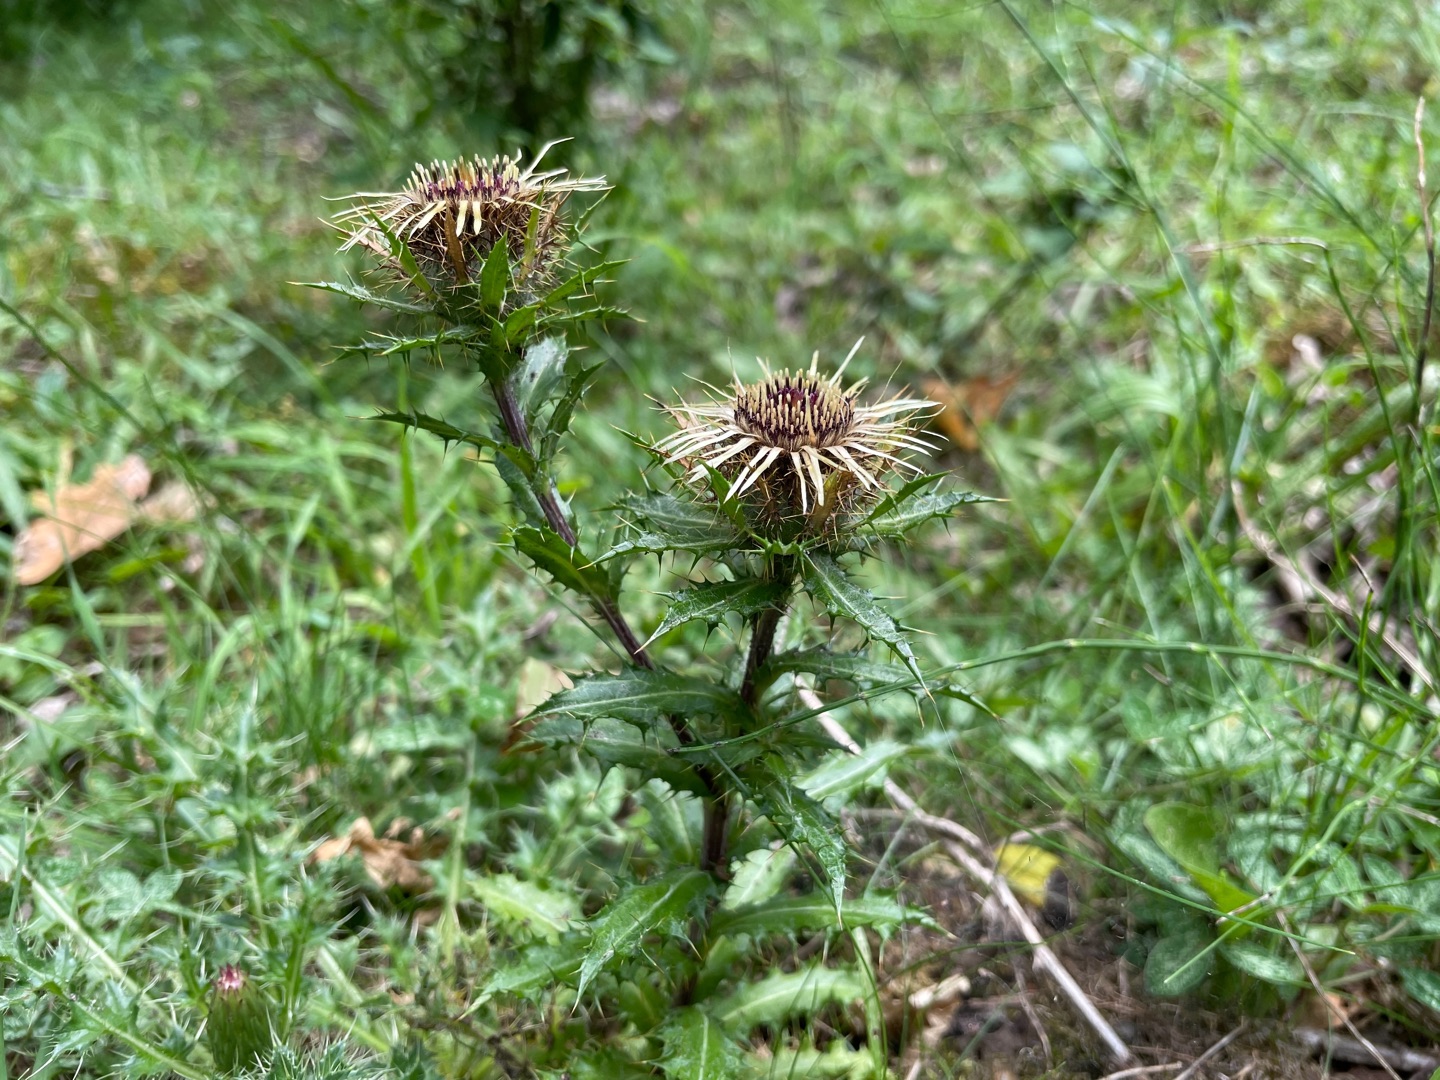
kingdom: Plantae
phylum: Tracheophyta
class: Magnoliopsida
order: Asterales
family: Asteraceae
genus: Carlina
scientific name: Carlina vulgaris
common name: Bakketidsel
